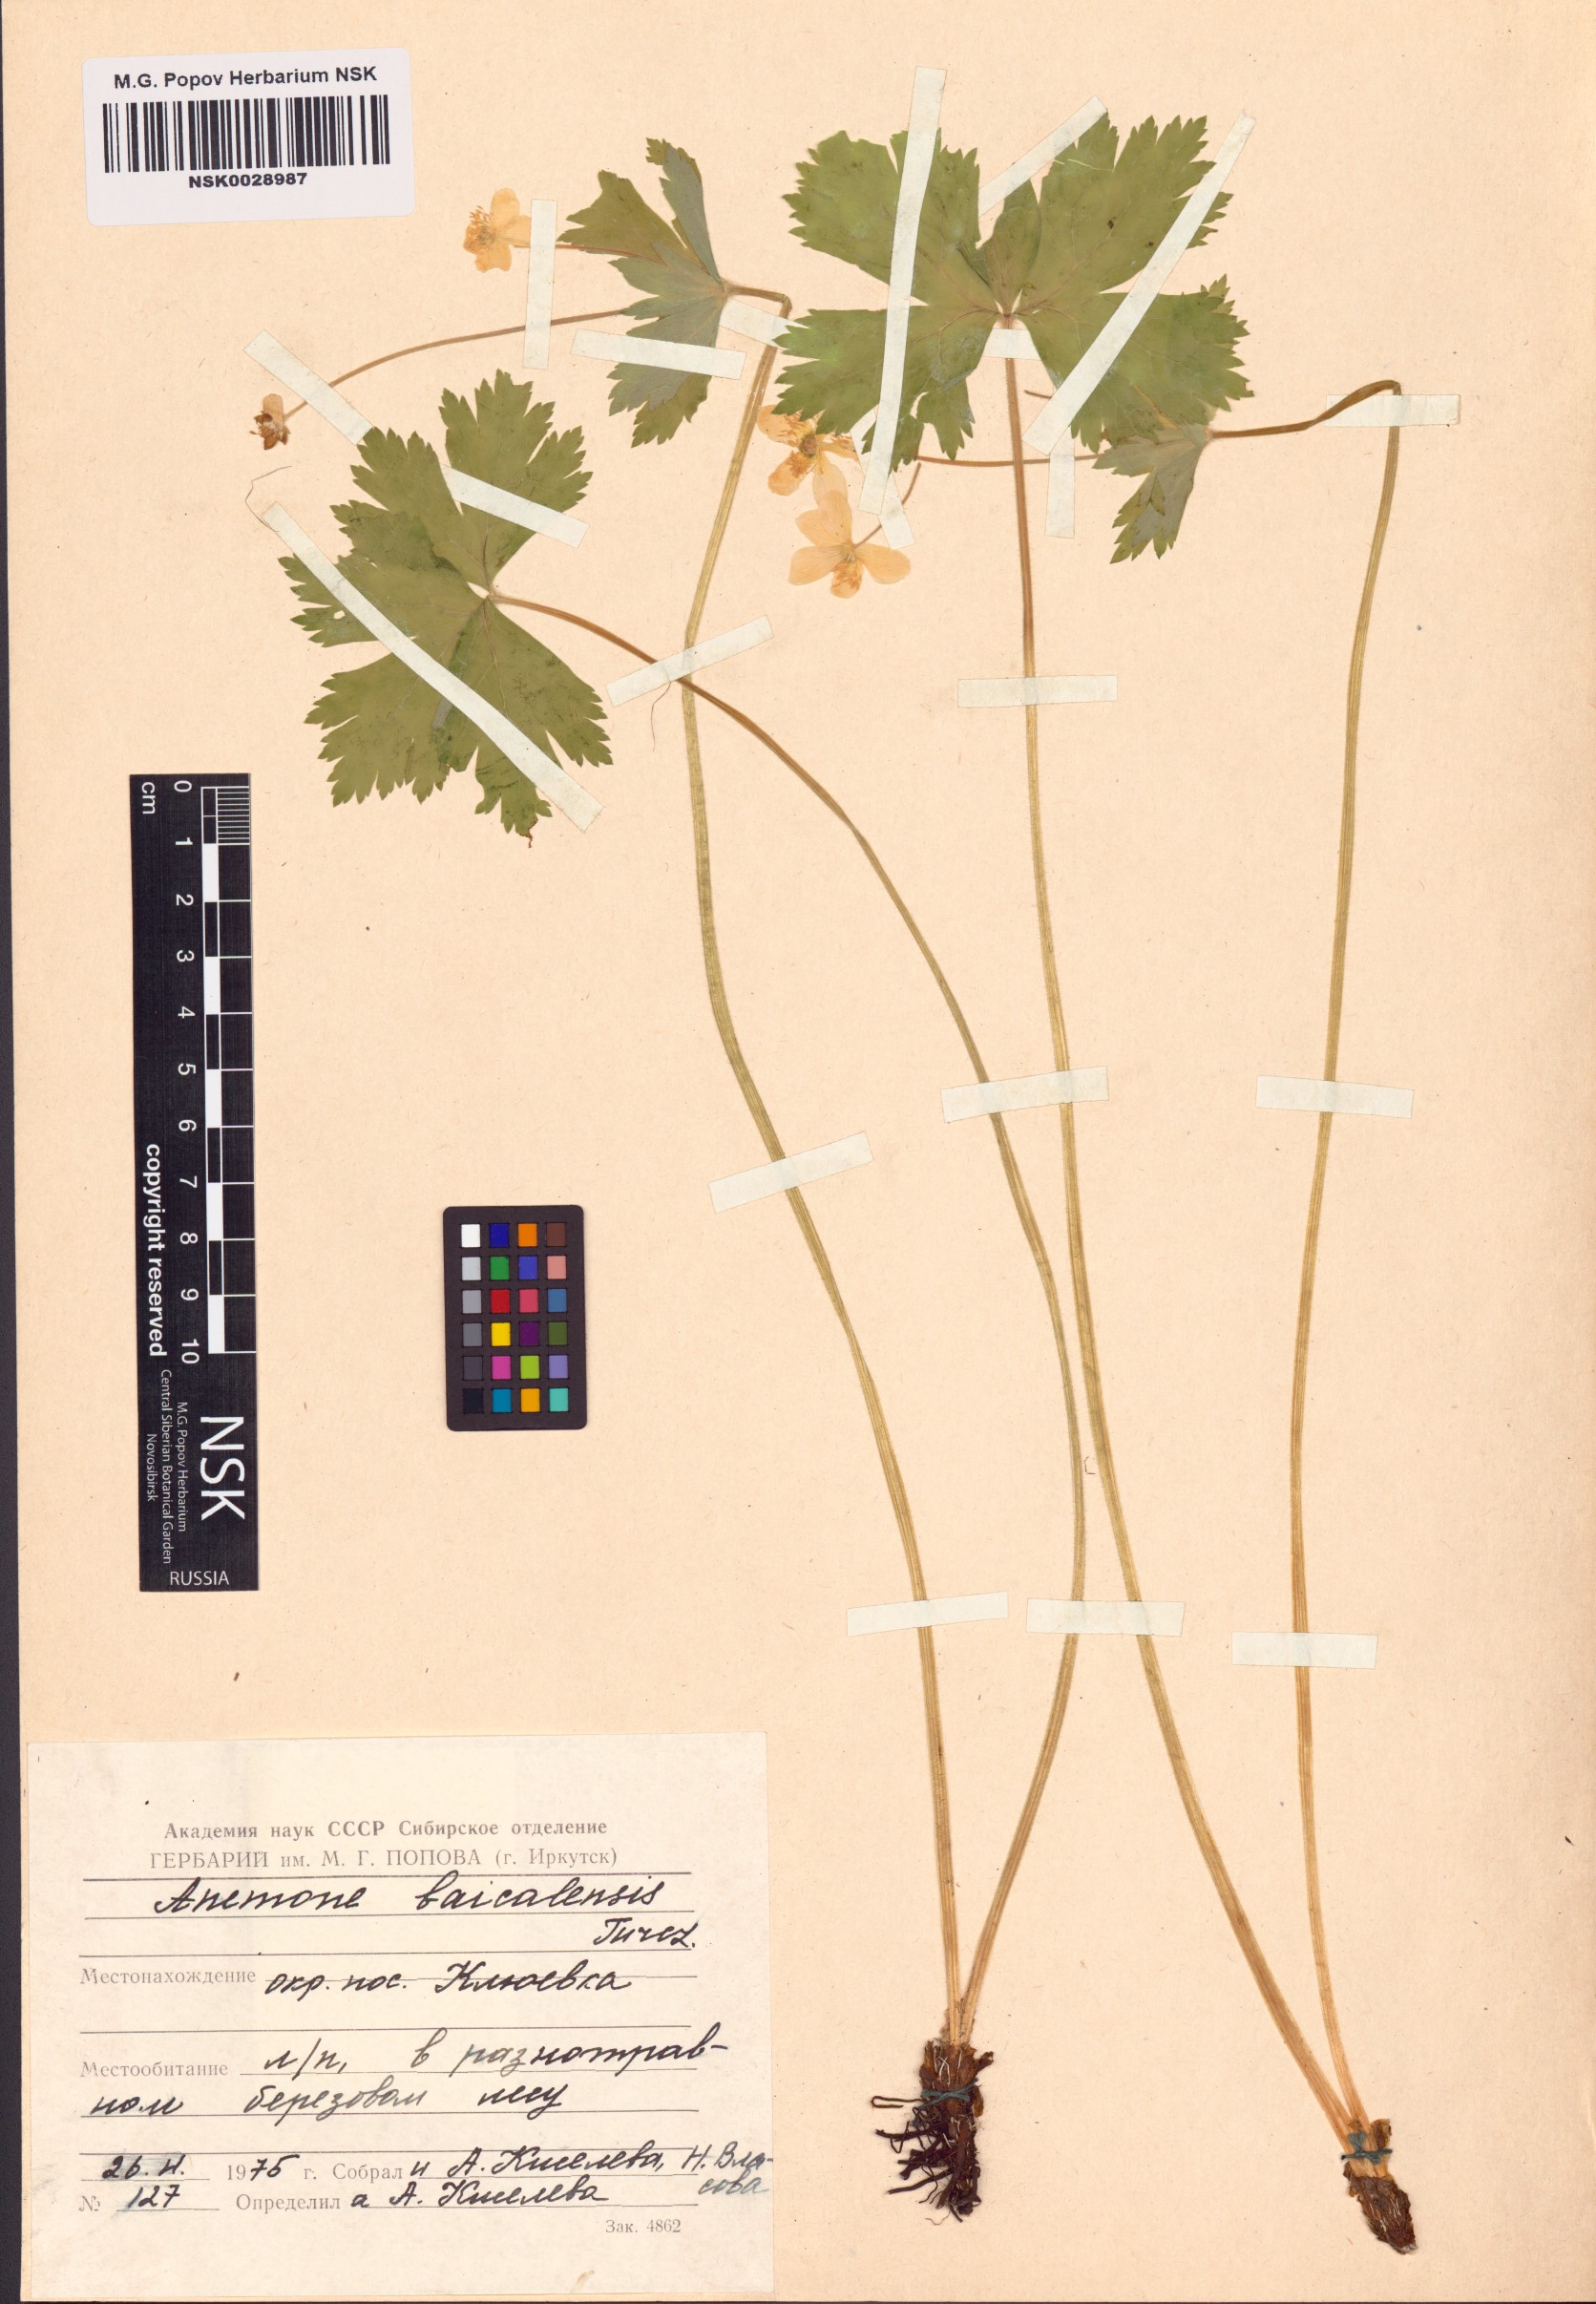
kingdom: Plantae
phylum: Tracheophyta
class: Magnoliopsida
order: Ranunculales
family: Ranunculaceae
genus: Anemonastrum
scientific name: Anemonastrum baicalense
